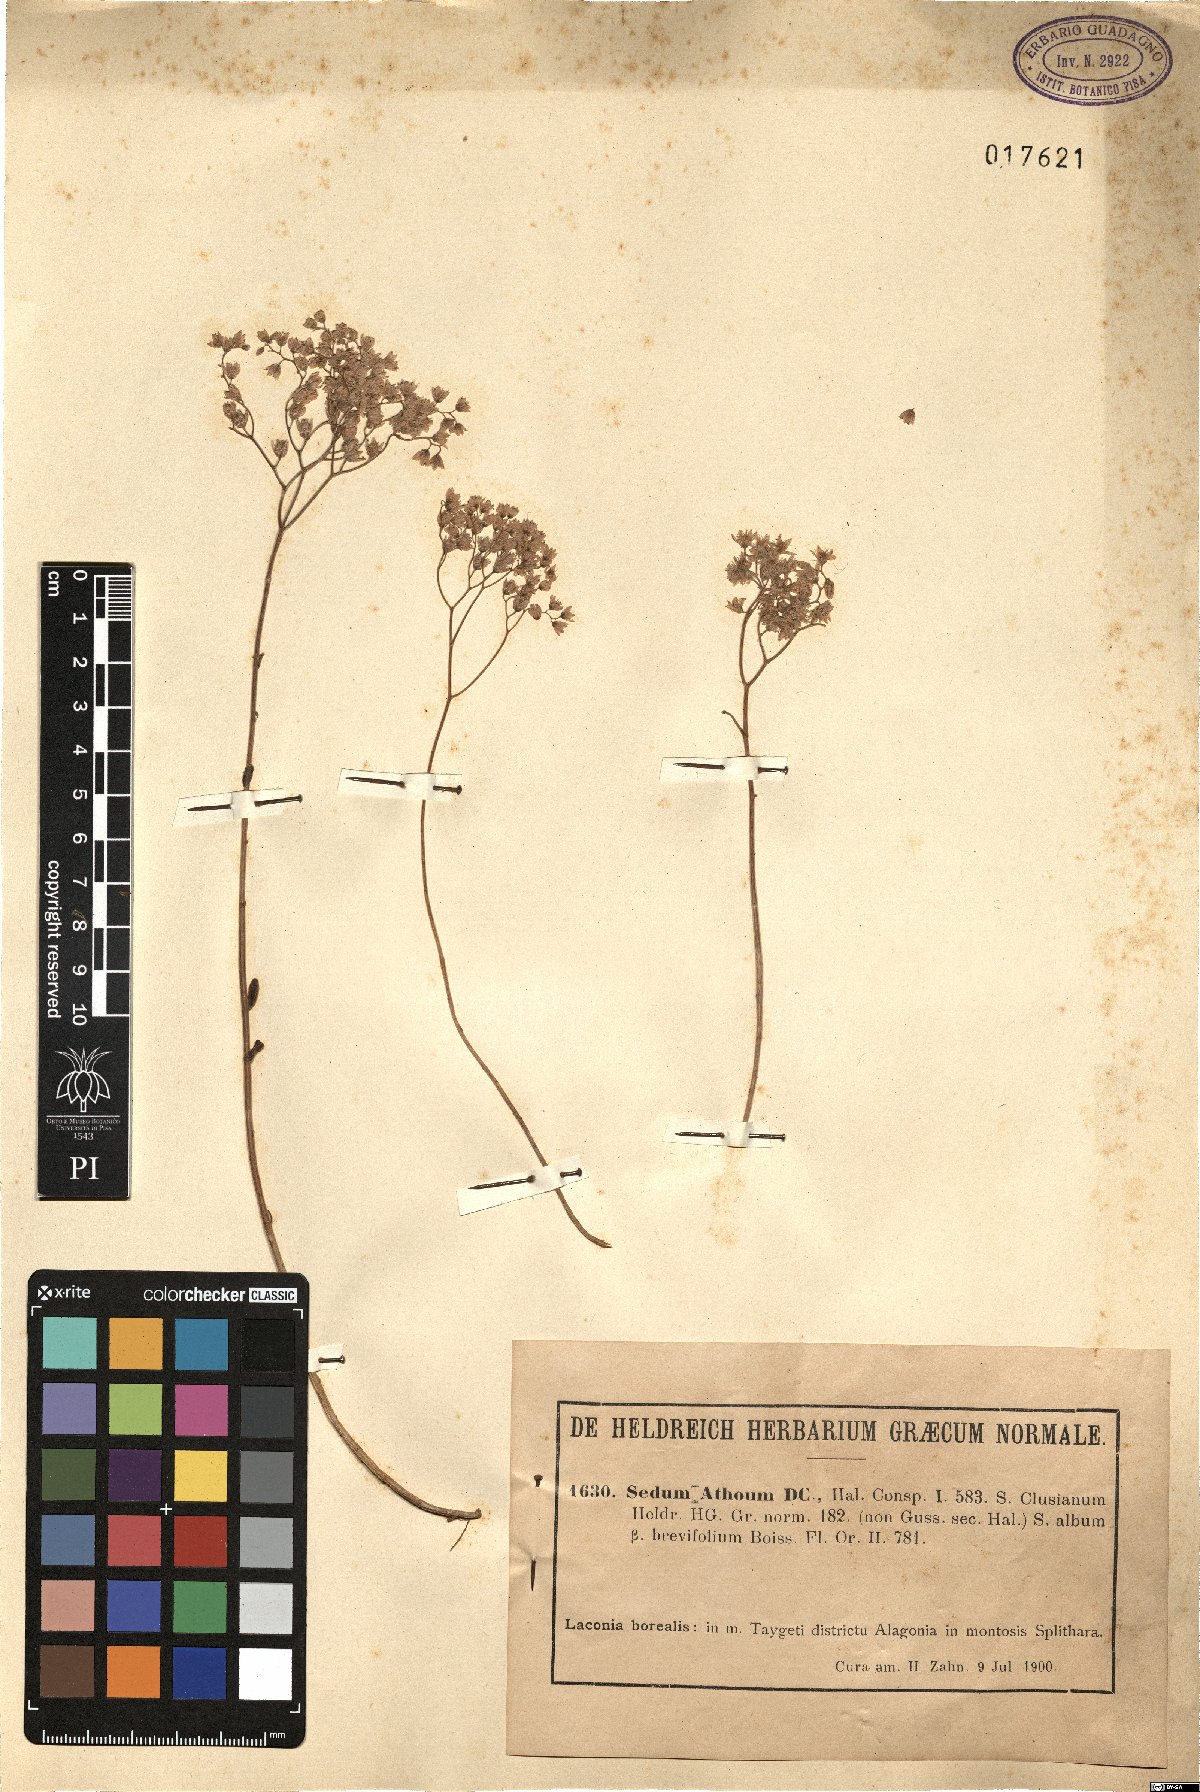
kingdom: Plantae
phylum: Tracheophyta
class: Magnoliopsida
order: Saxifragales
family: Crassulaceae
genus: Sedum
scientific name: Sedum album
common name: White stonecrop
